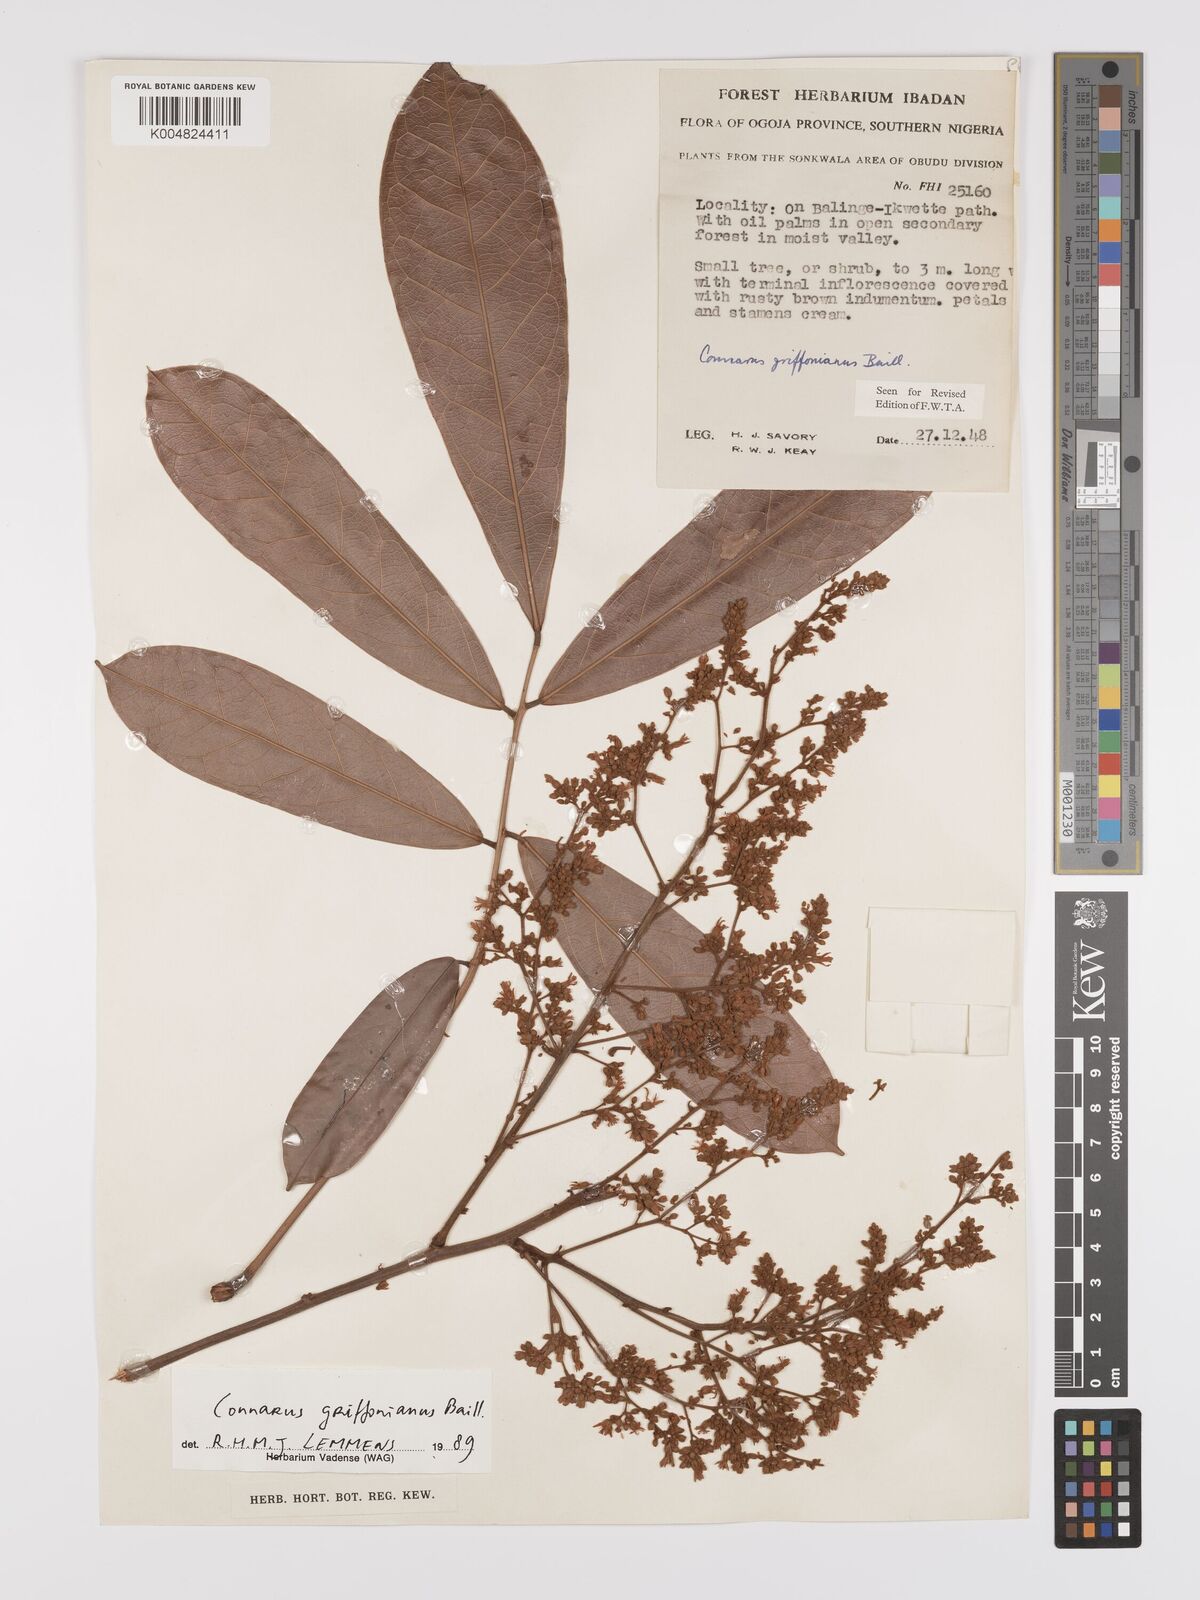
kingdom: Plantae
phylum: Tracheophyta
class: Magnoliopsida
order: Oxalidales
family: Connaraceae
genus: Connarus
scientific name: Connarus griffonianus
